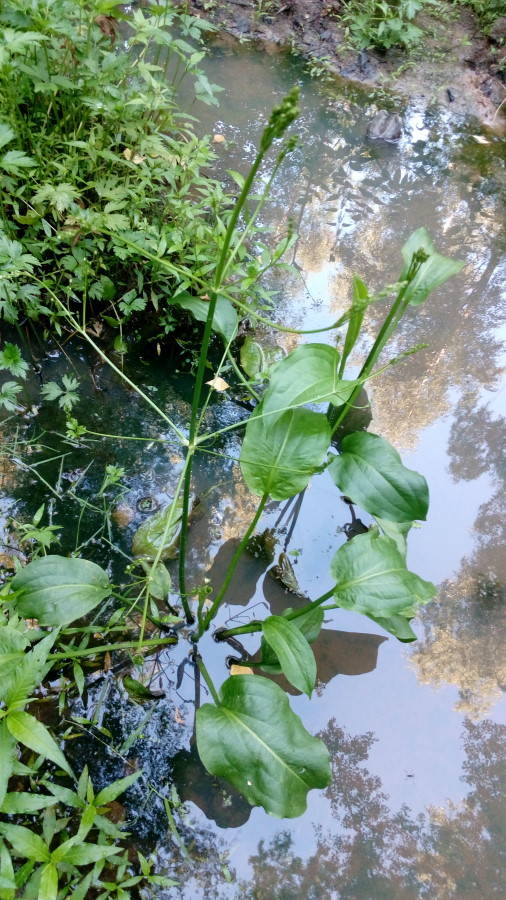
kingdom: Plantae
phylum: Tracheophyta
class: Liliopsida
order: Alismatales
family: Alismataceae
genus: Alisma
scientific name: Alisma plantago-aquatica
